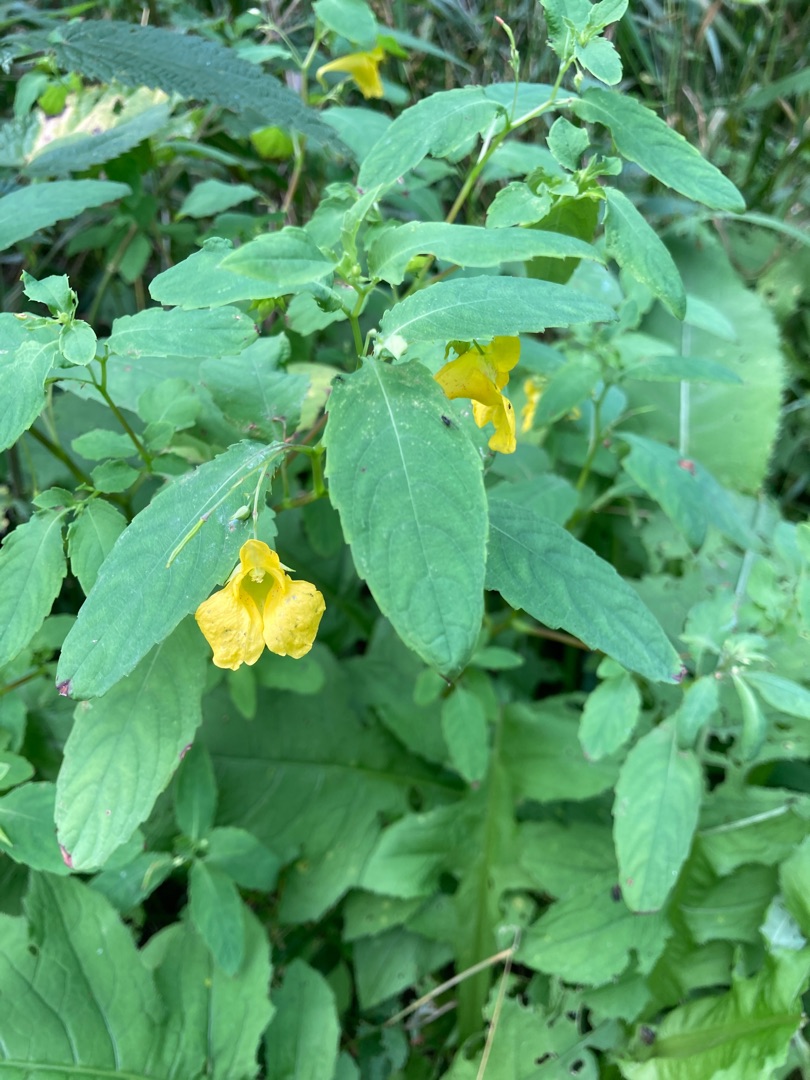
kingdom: Plantae
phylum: Tracheophyta
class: Magnoliopsida
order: Ericales
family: Balsaminaceae
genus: Impatiens
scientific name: Impatiens noli-tangere
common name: Spring-balsamin
